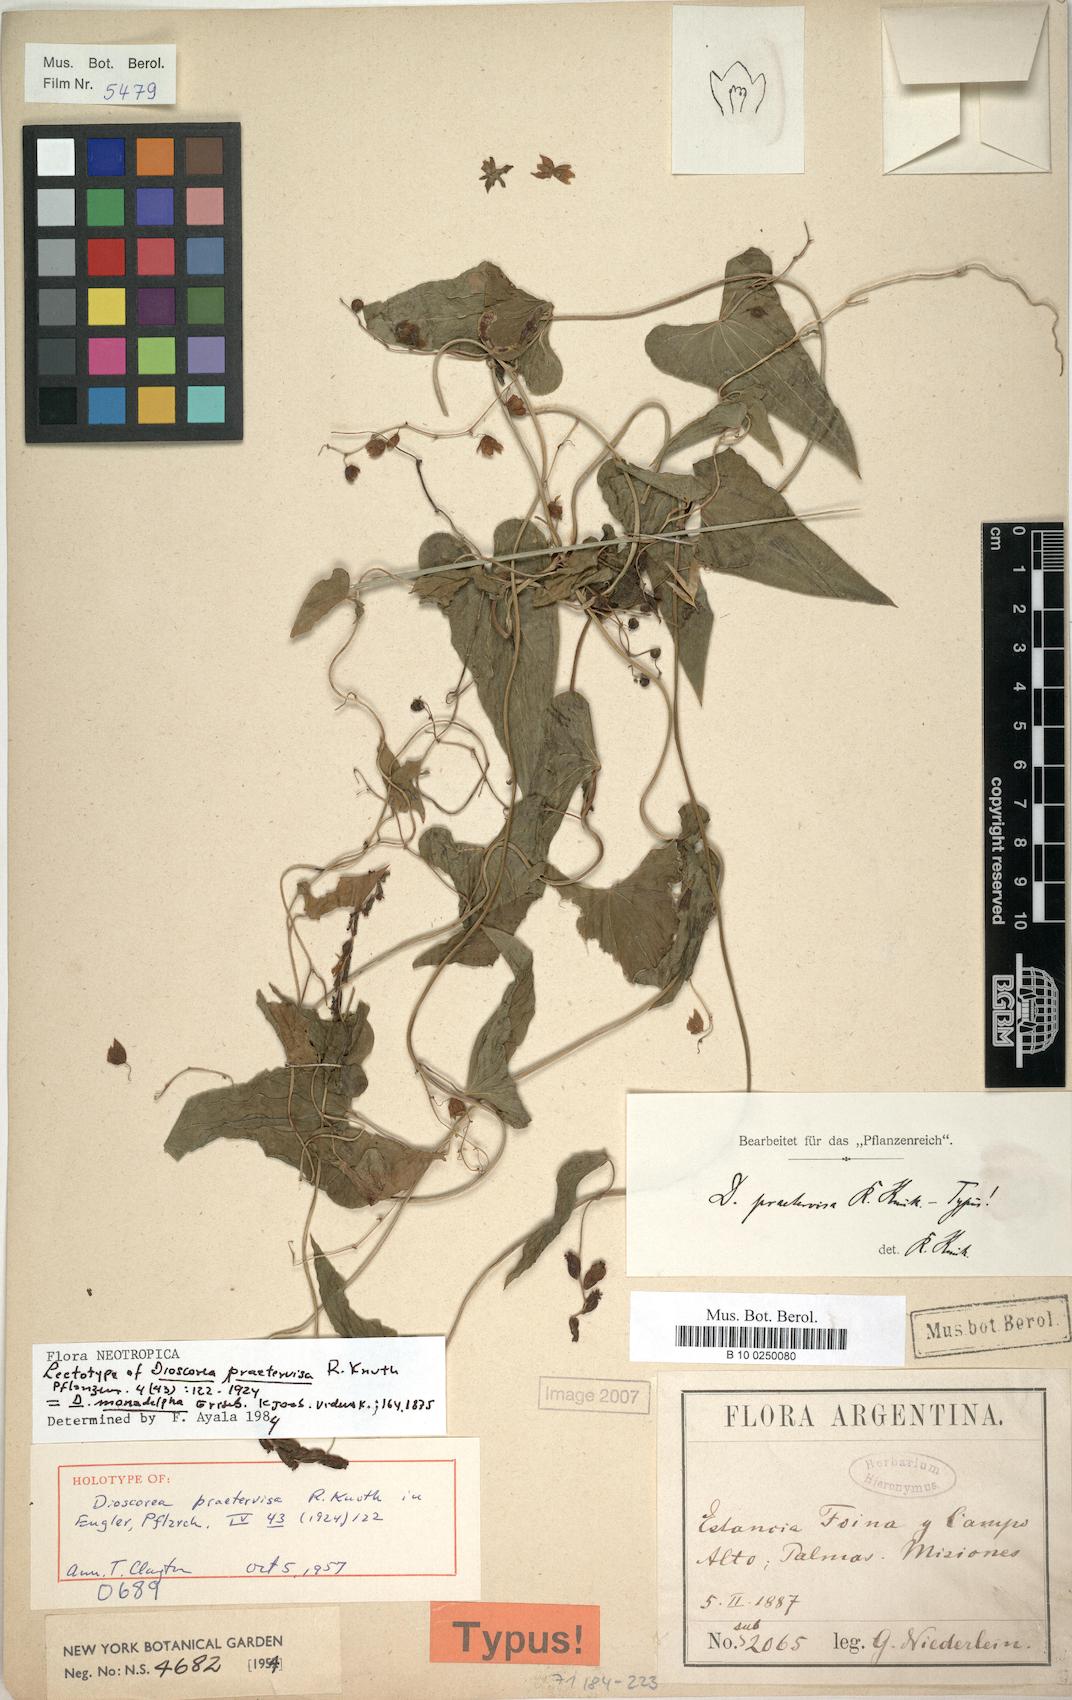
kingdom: Plantae
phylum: Tracheophyta
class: Liliopsida
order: Dioscoreales
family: Dioscoreaceae
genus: Dioscorea
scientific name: Dioscorea monadelpha
